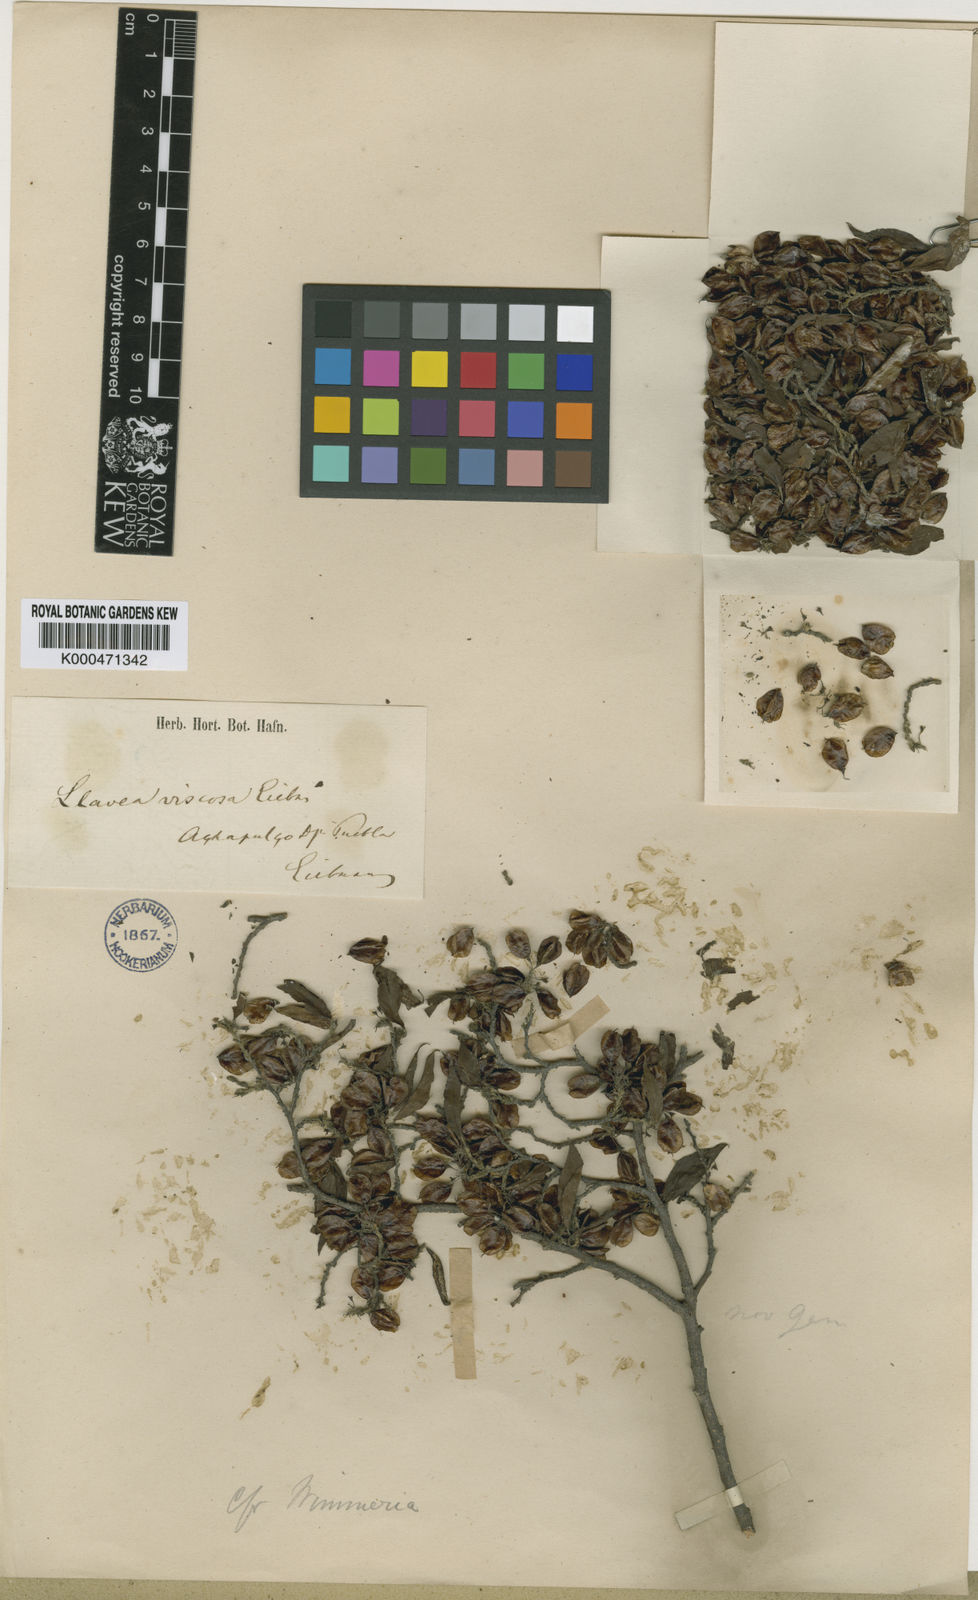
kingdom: Plantae
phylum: Tracheophyta
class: Magnoliopsida
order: Malpighiales
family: Salicaceae
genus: Neopringlea
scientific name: Neopringlea viscosa
